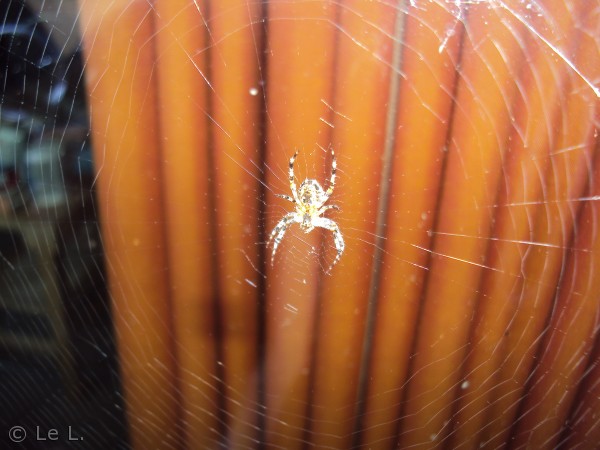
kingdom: Animalia
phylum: Arthropoda
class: Arachnida
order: Araneae
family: Araneidae
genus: Araneus
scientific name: Araneus diadematus
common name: Korsedderkop
